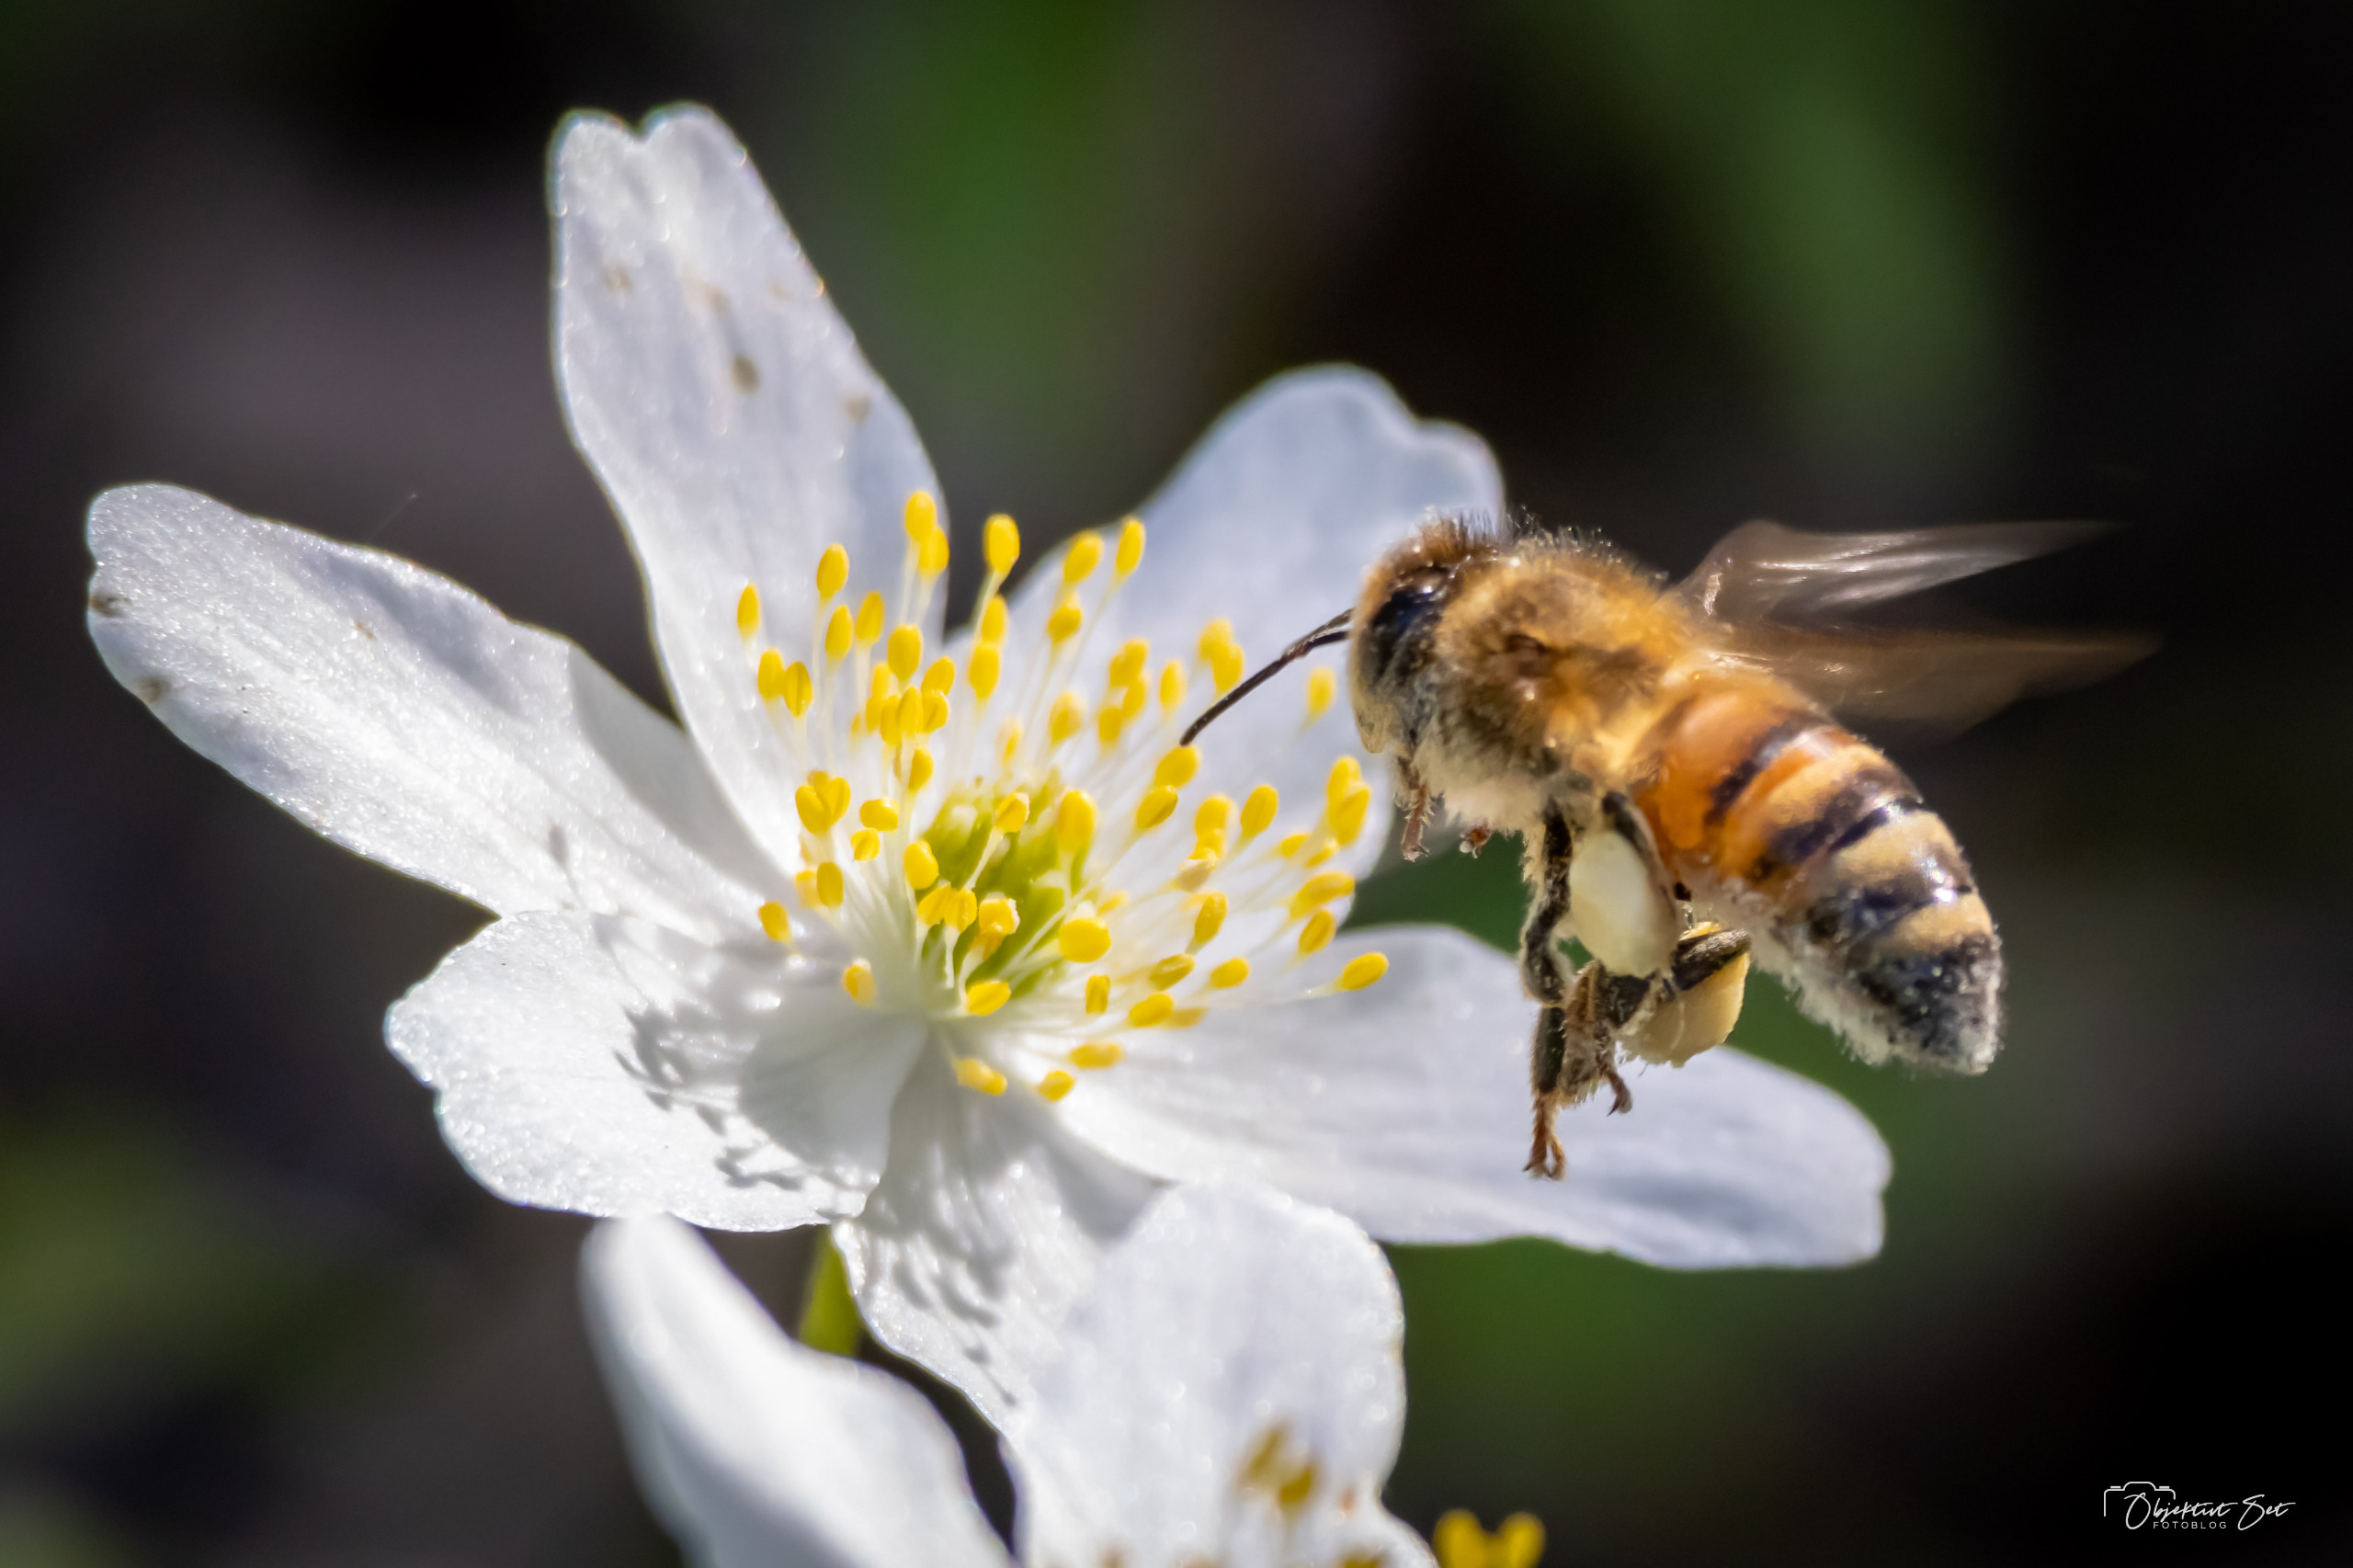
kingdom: Animalia
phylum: Arthropoda
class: Insecta
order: Hymenoptera
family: Apidae
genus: Apis
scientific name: Apis mellifera
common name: Honningbi
